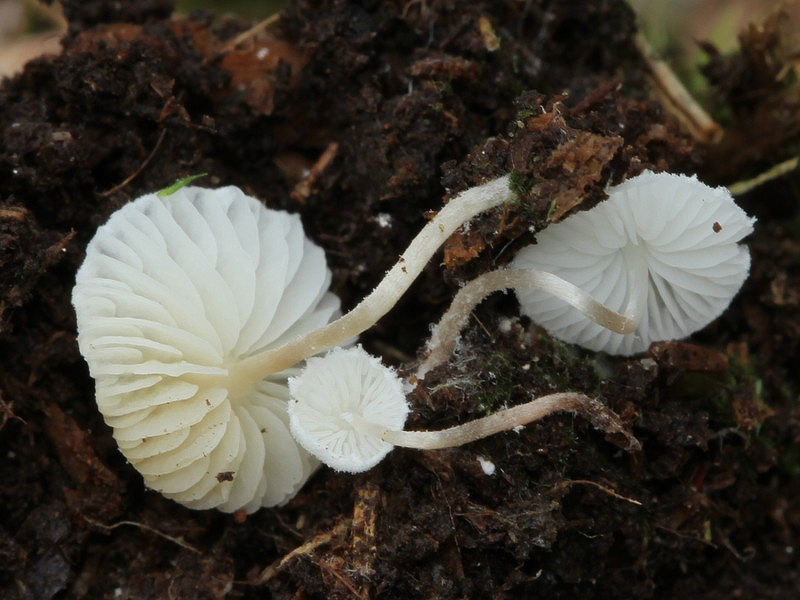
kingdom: Fungi
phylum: Basidiomycota
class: Agaricomycetes
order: Agaricales
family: Agaricaceae
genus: Cystolepiota
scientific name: Cystolepiota seminuda
